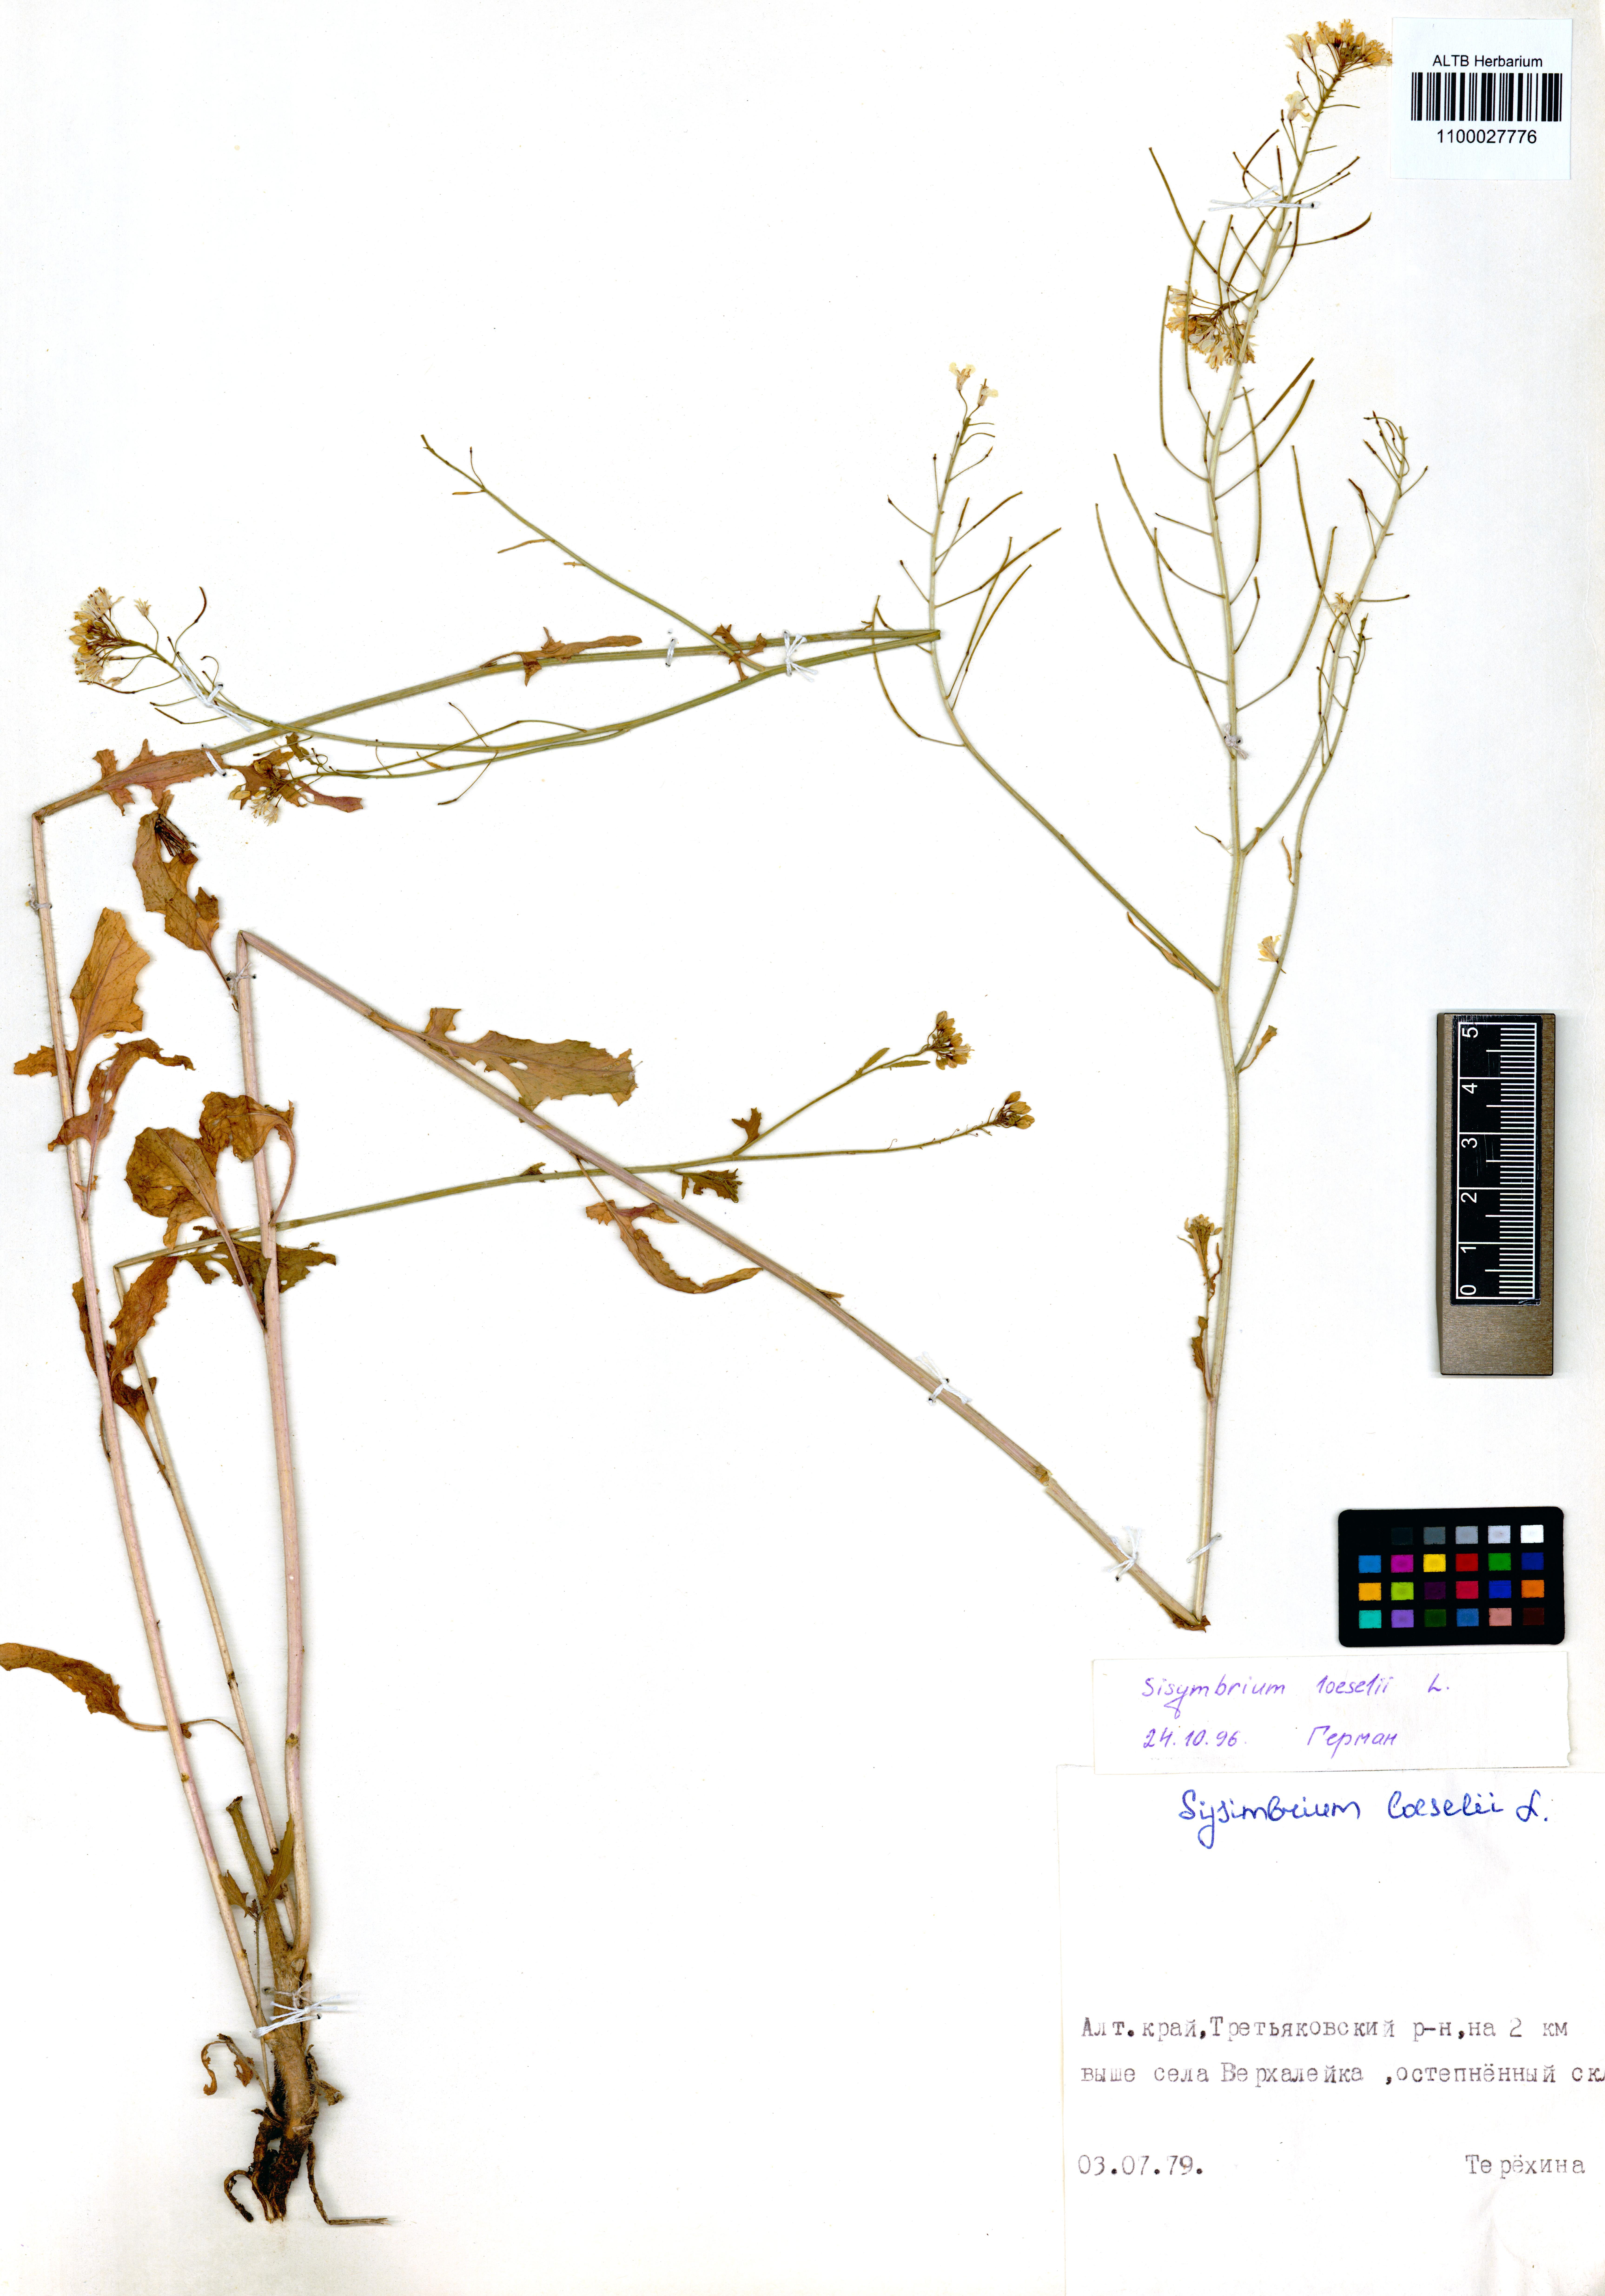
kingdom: Plantae
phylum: Tracheophyta
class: Magnoliopsida
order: Brassicales
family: Brassicaceae
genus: Sisymbrium
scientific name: Sisymbrium loeselii
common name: False london-rocket
